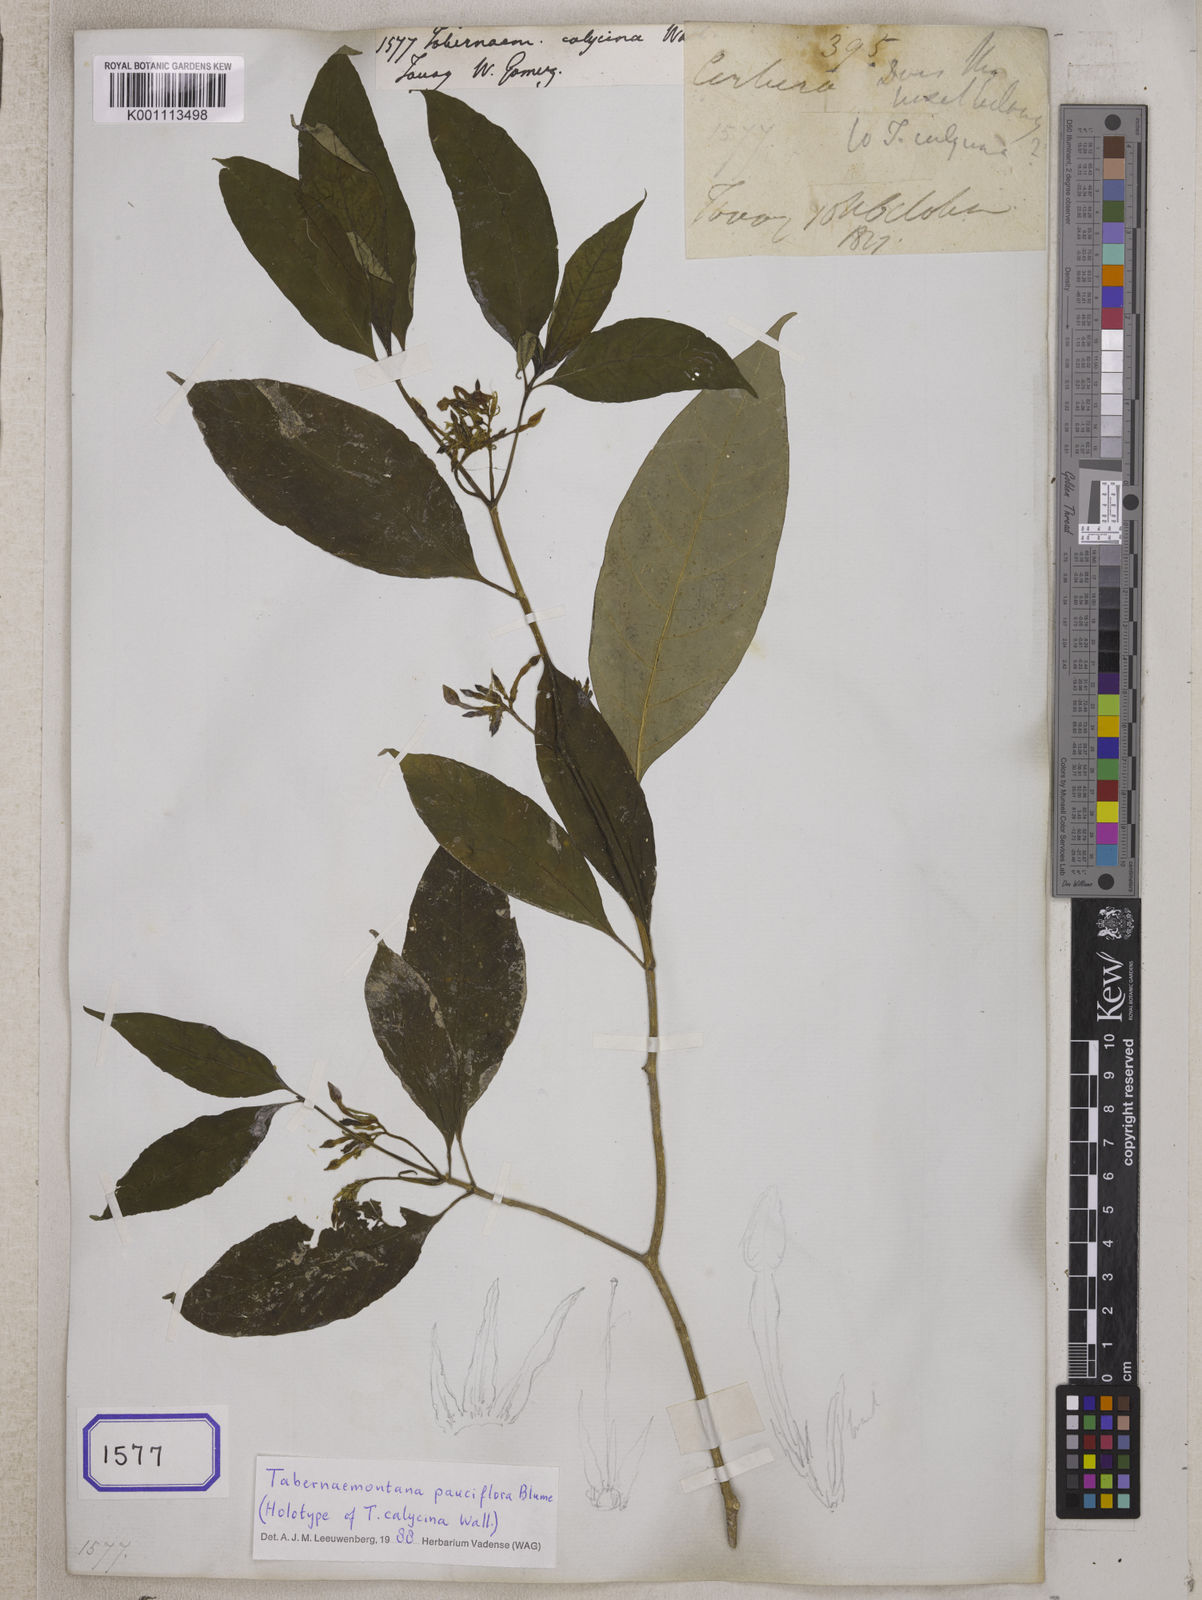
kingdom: Plantae
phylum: Tracheophyta
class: Magnoliopsida
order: Gentianales
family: Apocynaceae
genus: Tabernaemontana
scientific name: Tabernaemontana pauciflora
